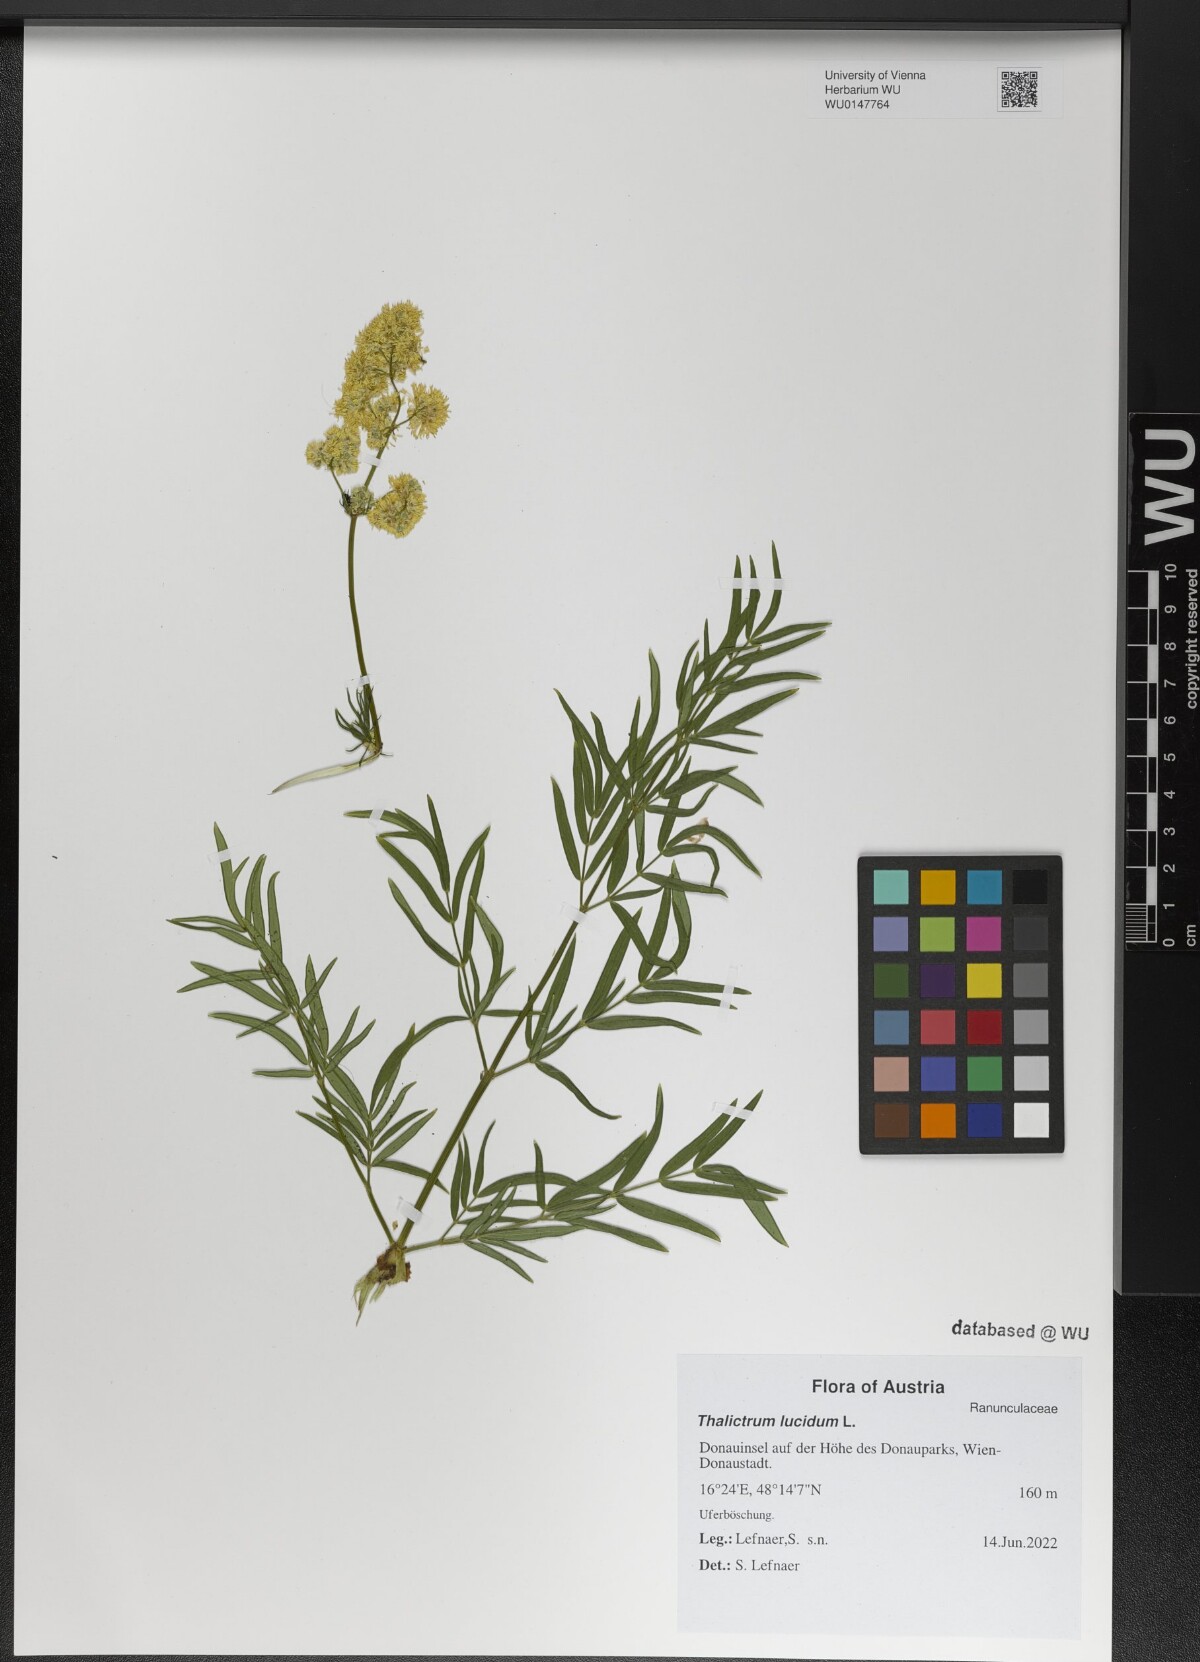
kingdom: Plantae
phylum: Tracheophyta
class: Magnoliopsida
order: Ranunculales
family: Ranunculaceae
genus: Thalictrum
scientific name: Thalictrum lucidum
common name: Shining meadow-rue
